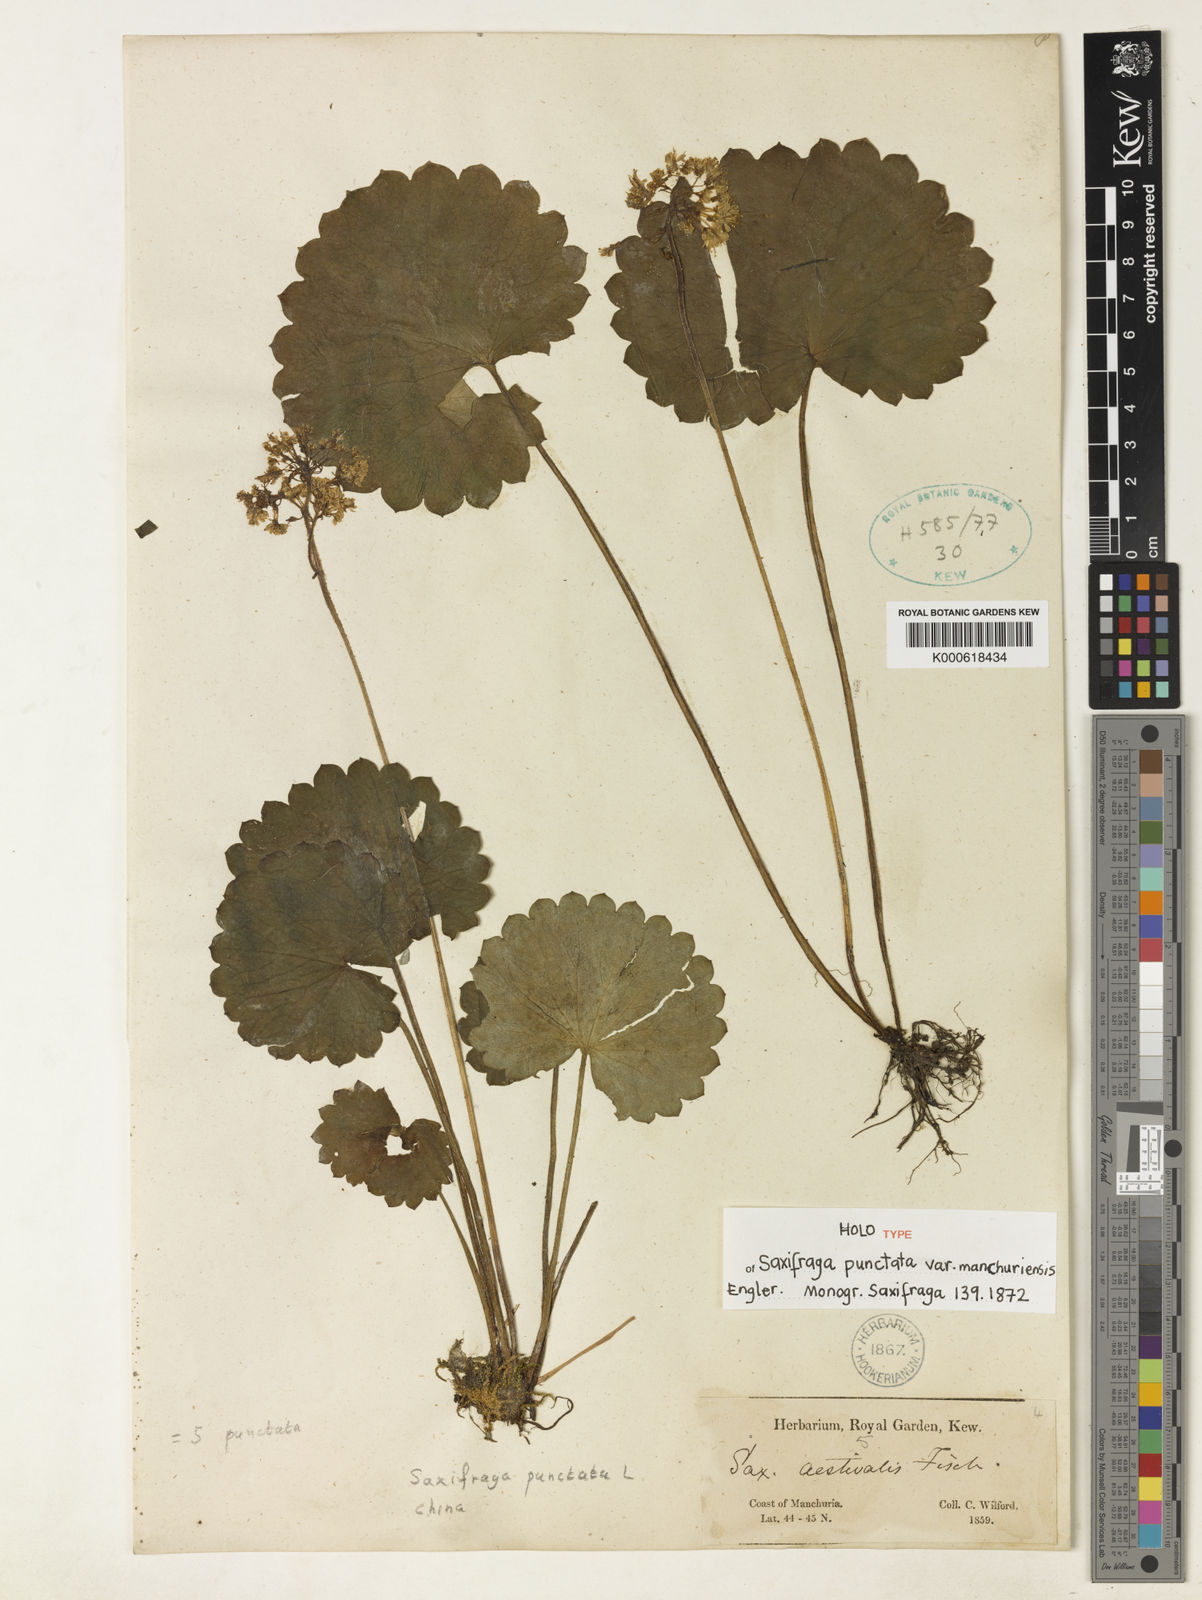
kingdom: Plantae
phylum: Tracheophyta
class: Magnoliopsida
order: Saxifragales
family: Saxifragaceae
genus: Micranthes
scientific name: Micranthes manchuriensis
